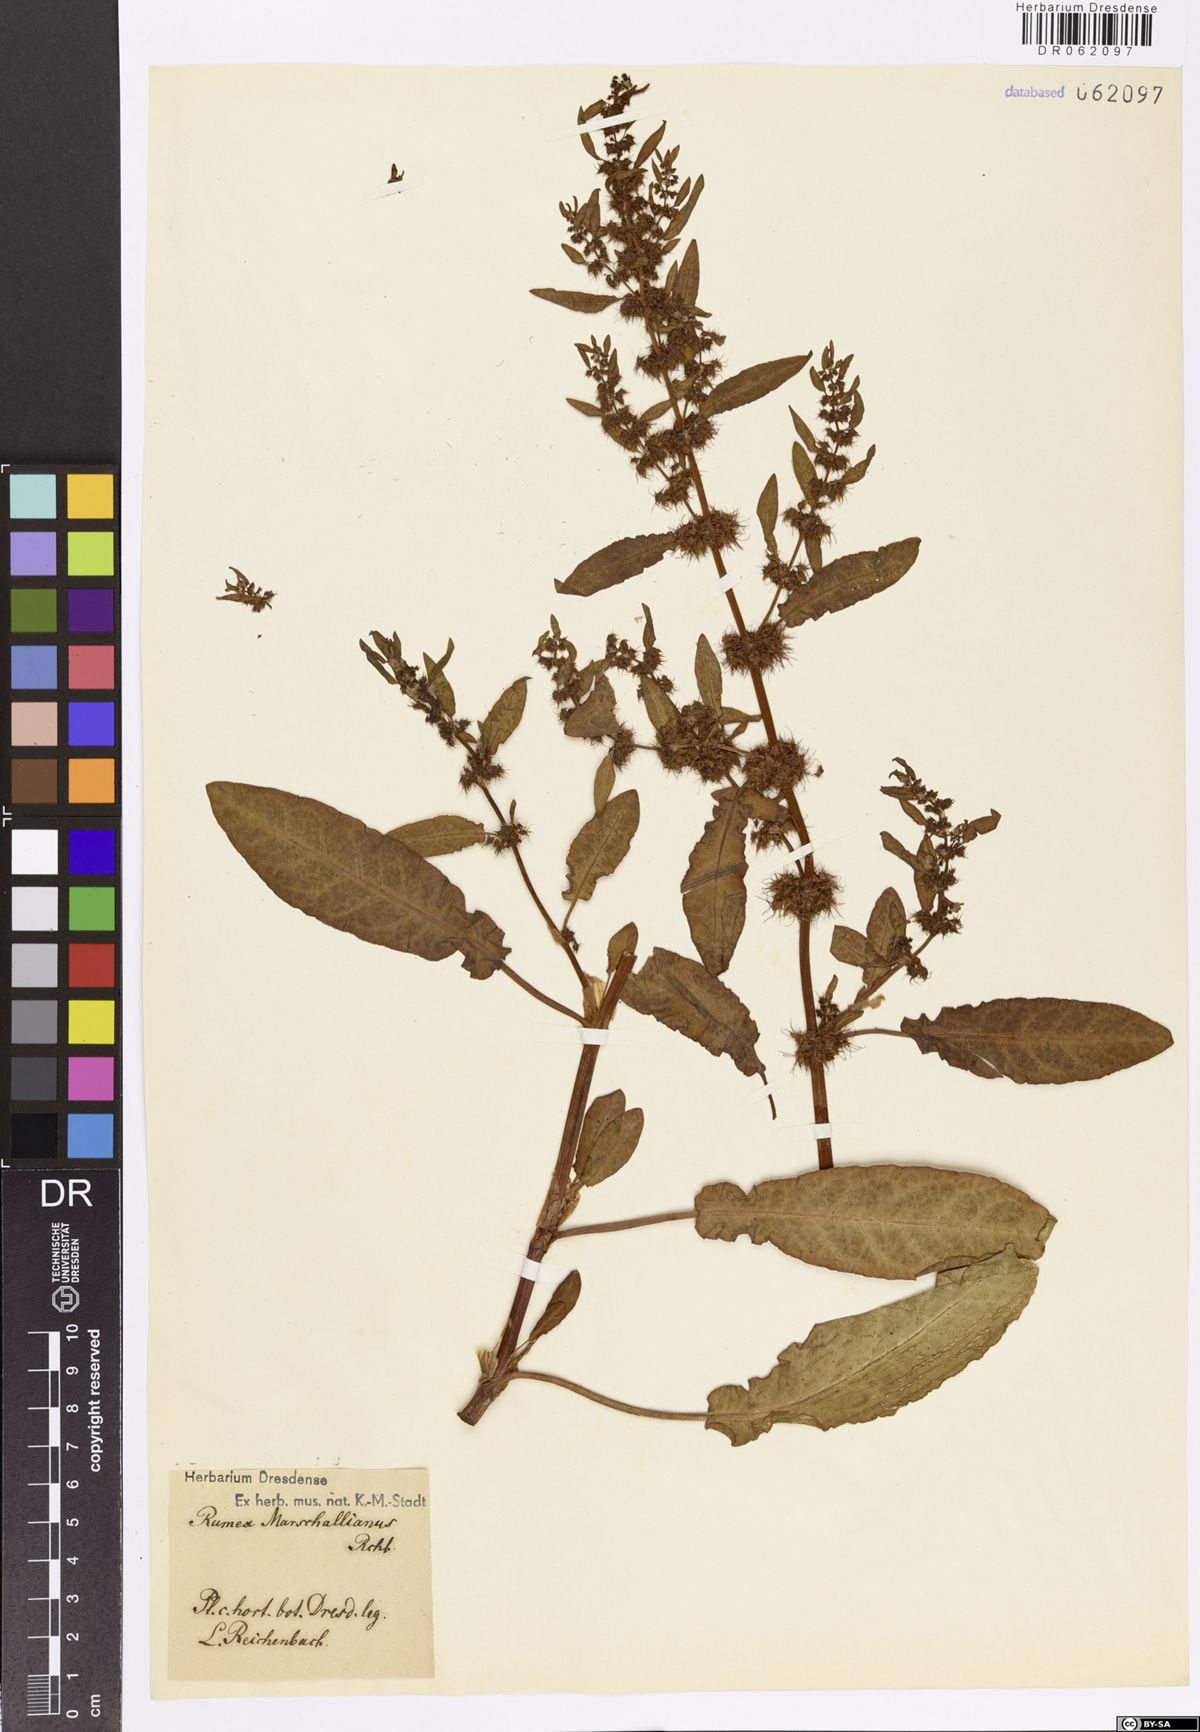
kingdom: Plantae
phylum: Tracheophyta
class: Magnoliopsida
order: Caryophyllales
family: Polygonaceae
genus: Rumex
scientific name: Rumex marschallianus
